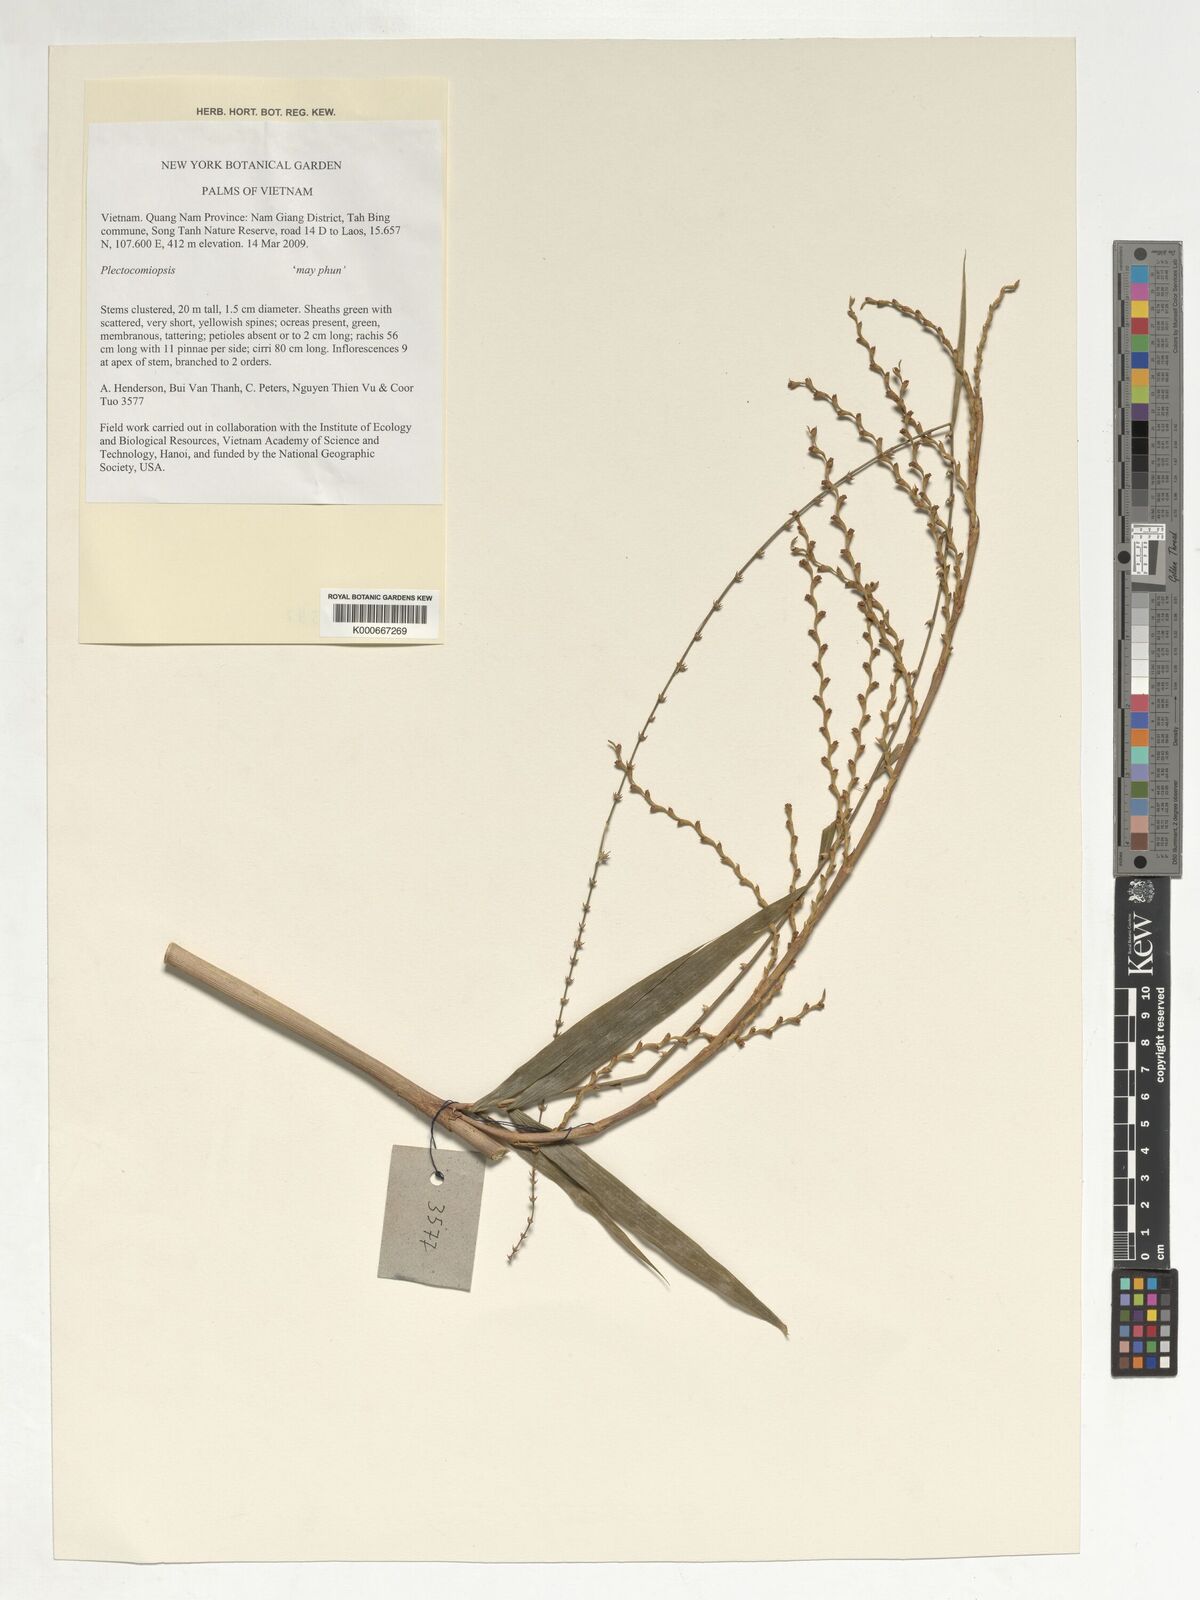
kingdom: Plantae
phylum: Tracheophyta
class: Liliopsida
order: Arecales
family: Arecaceae
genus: Plectocomiopsis
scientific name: Plectocomiopsis
